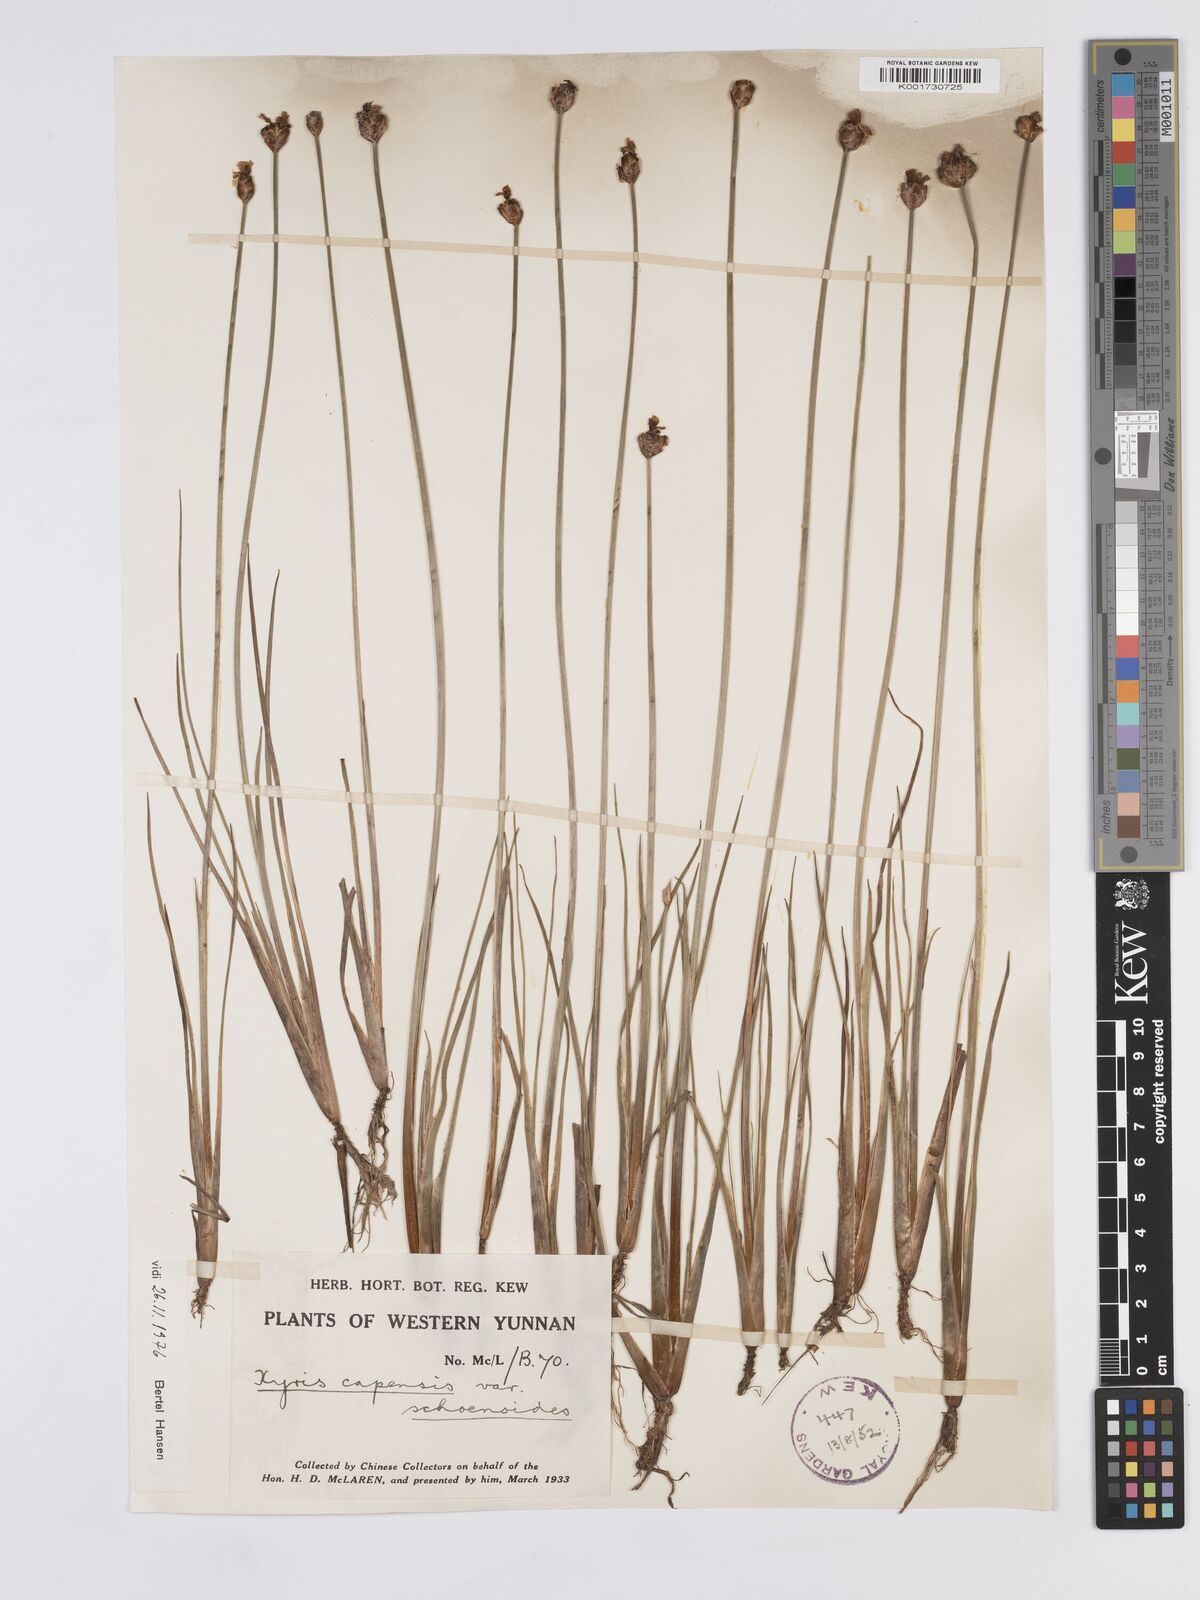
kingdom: Plantae
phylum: Tracheophyta
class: Liliopsida
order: Poales
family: Xyridaceae
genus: Xyris
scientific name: Xyris capensis
